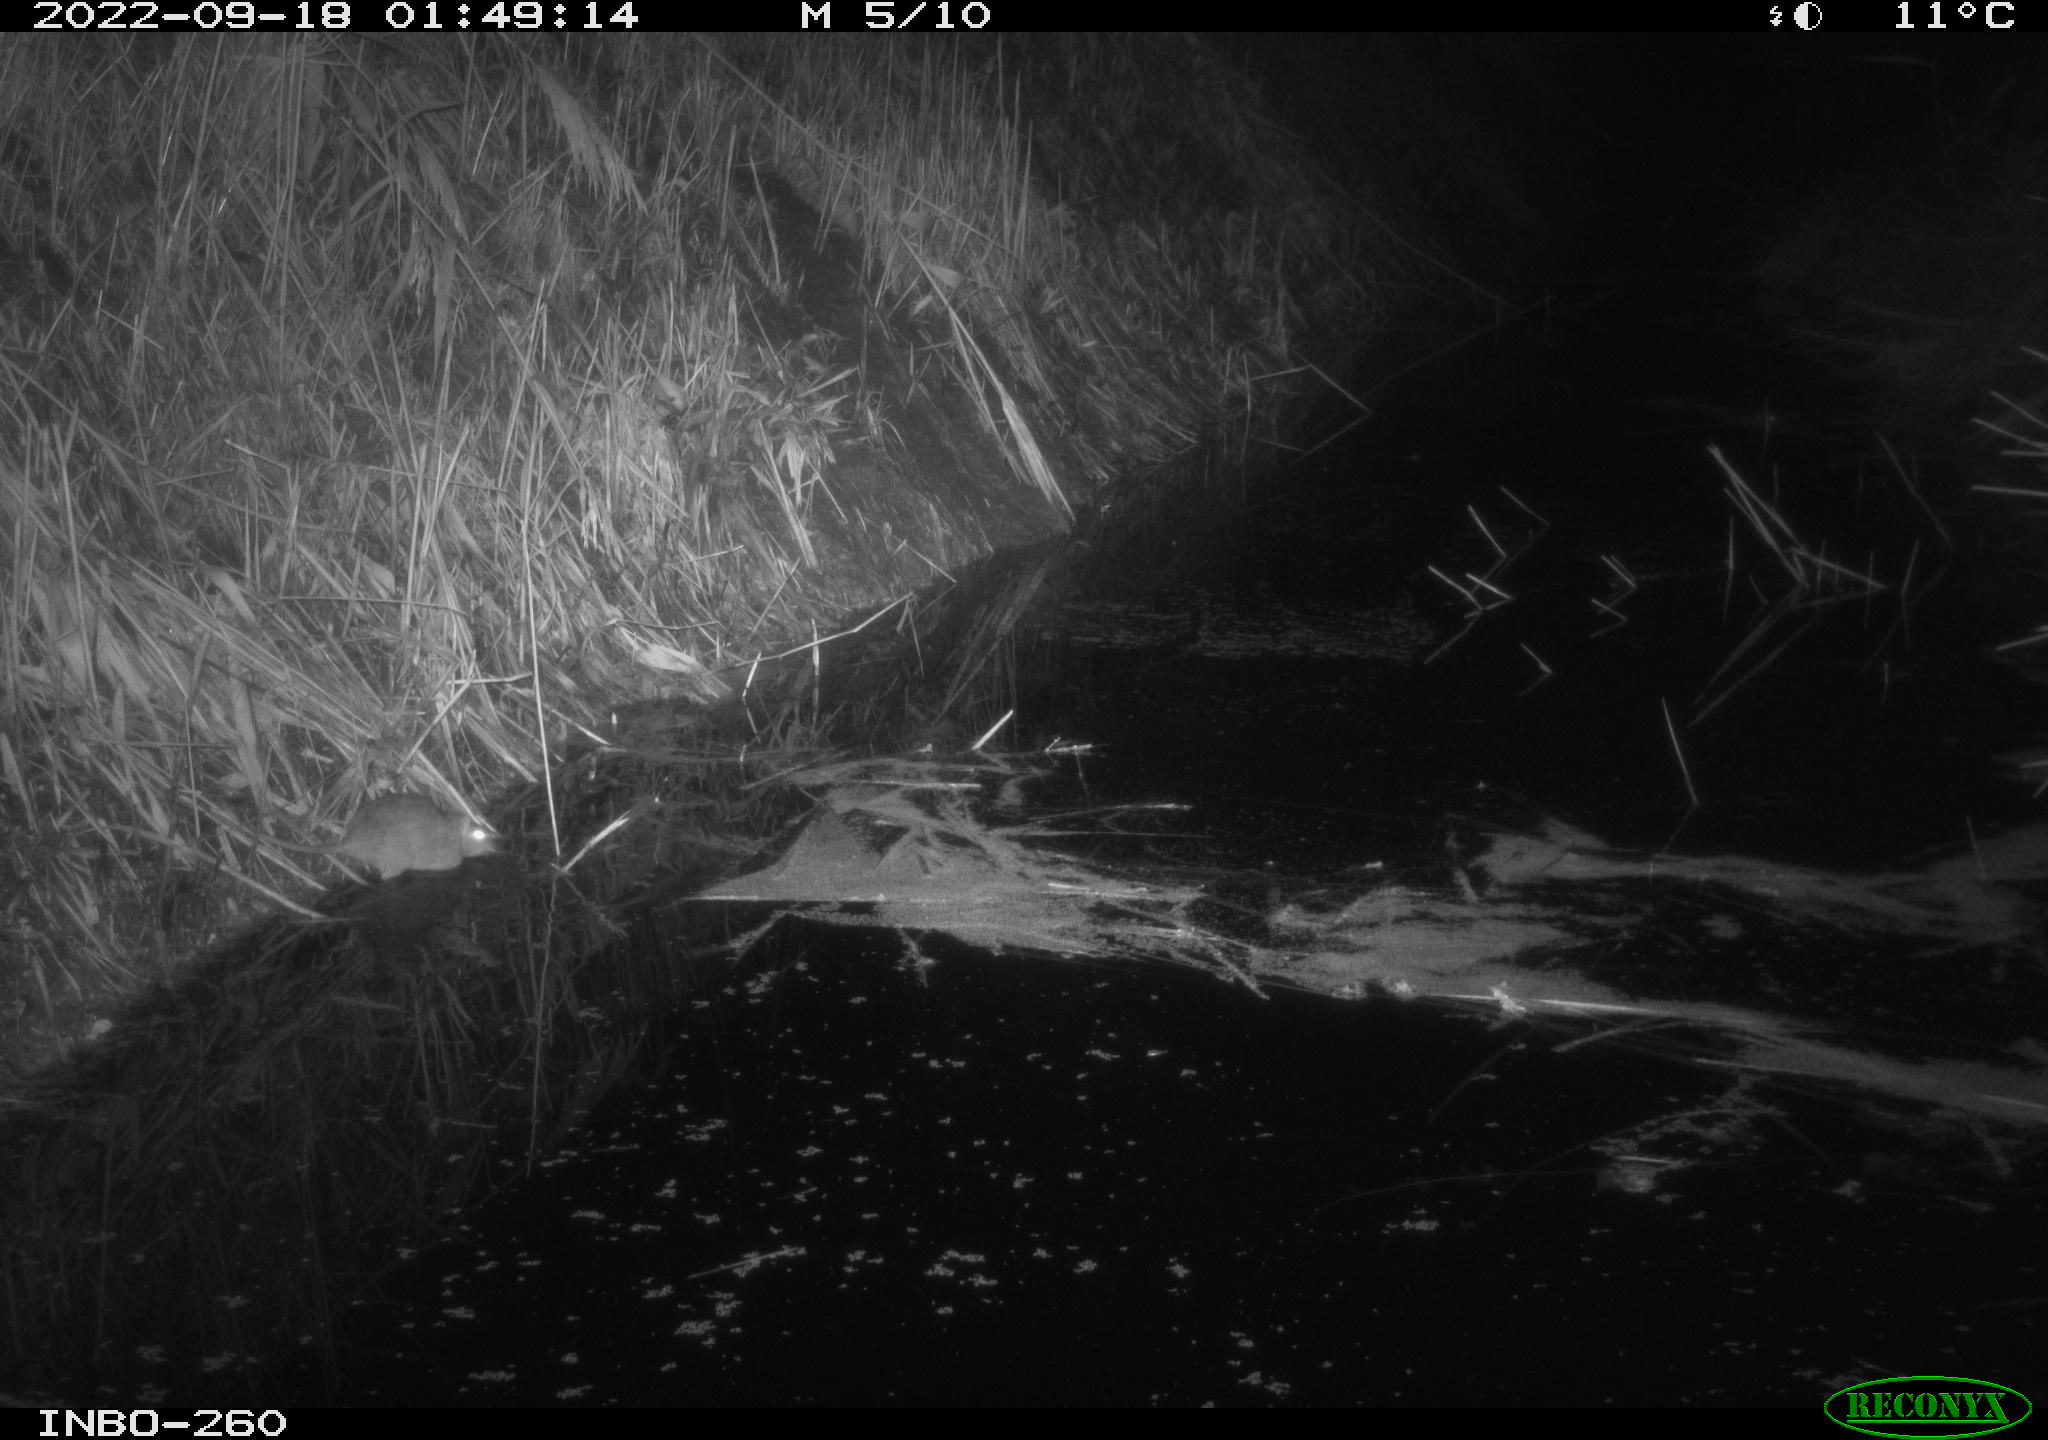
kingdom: Animalia
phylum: Chordata
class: Mammalia
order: Rodentia
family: Muridae
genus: Rattus
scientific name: Rattus norvegicus
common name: Brown rat
